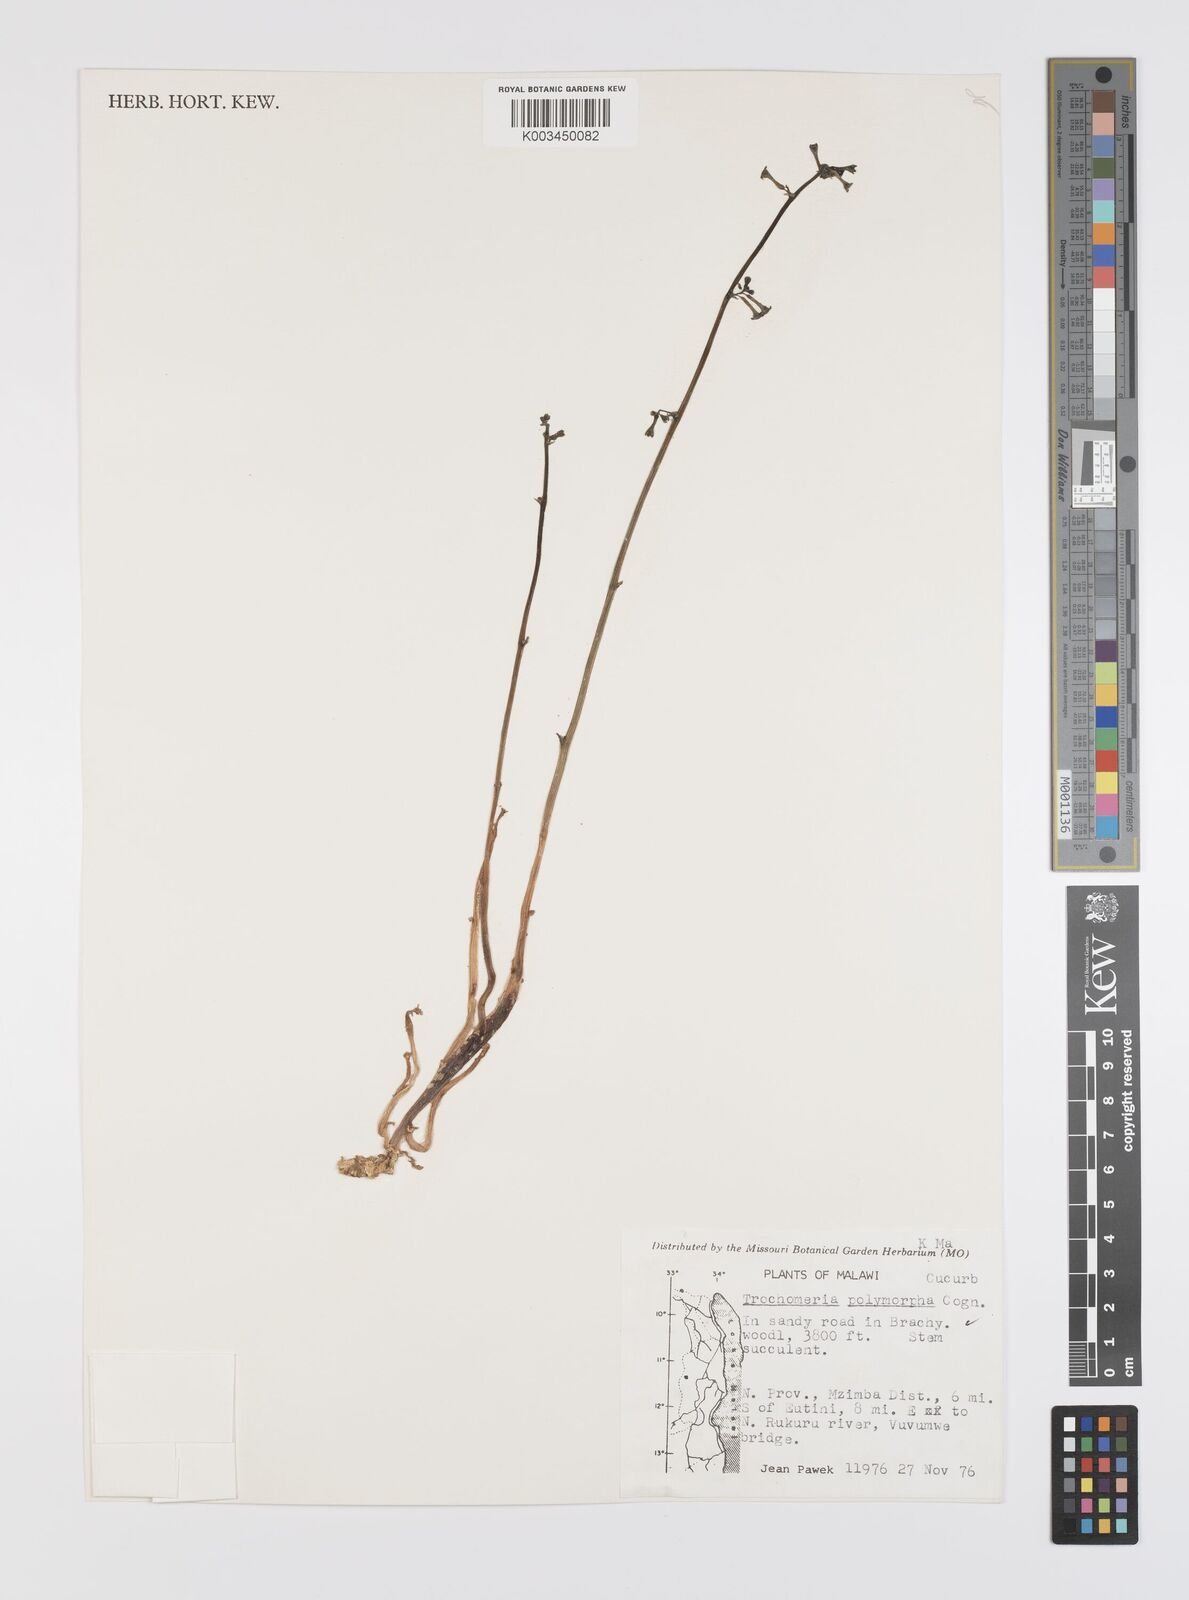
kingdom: Plantae
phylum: Tracheophyta
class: Magnoliopsida
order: Cucurbitales
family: Cucurbitaceae
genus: Trochomeria
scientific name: Trochomeria polymorpha
